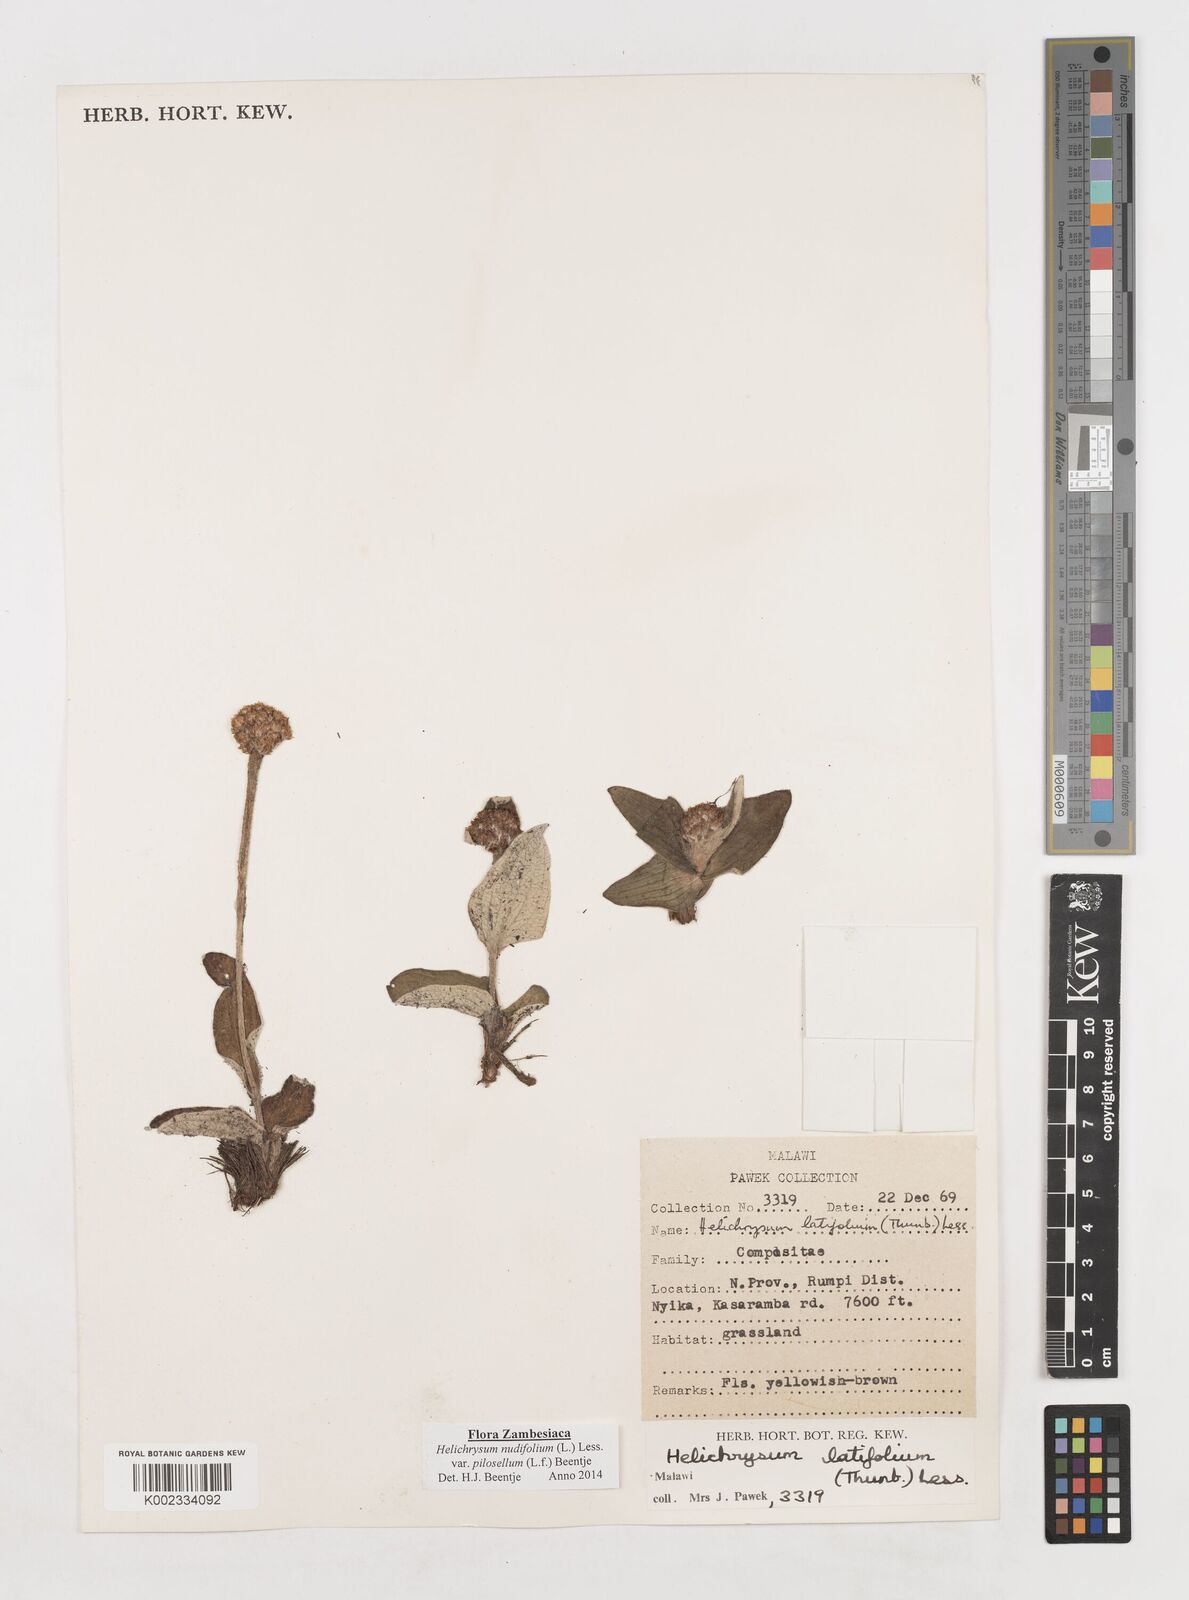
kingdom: Plantae
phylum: Tracheophyta
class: Magnoliopsida
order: Asterales
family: Asteraceae
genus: Helichrysum
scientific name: Helichrysum nudifolium
